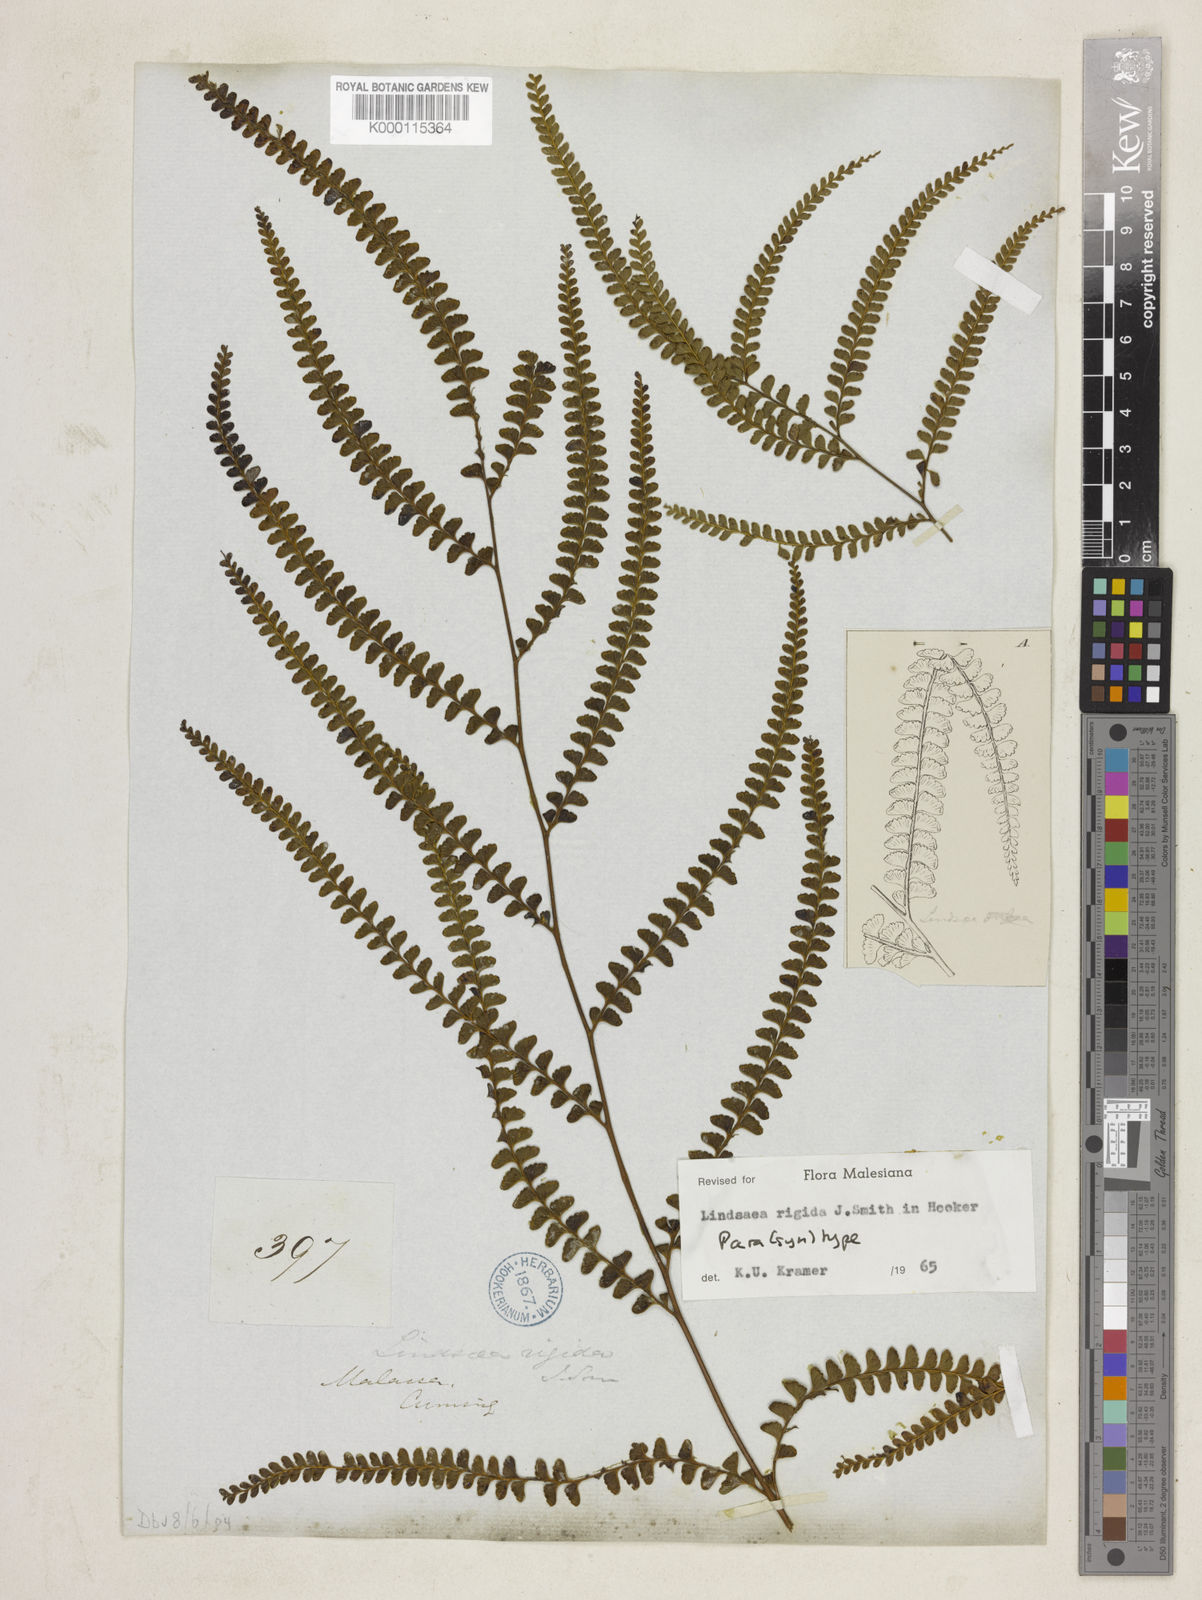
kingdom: Plantae
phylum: Tracheophyta
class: Polypodiopsida
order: Polypodiales
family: Lindsaeaceae
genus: Lindsaea
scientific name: Lindsaea rigida
